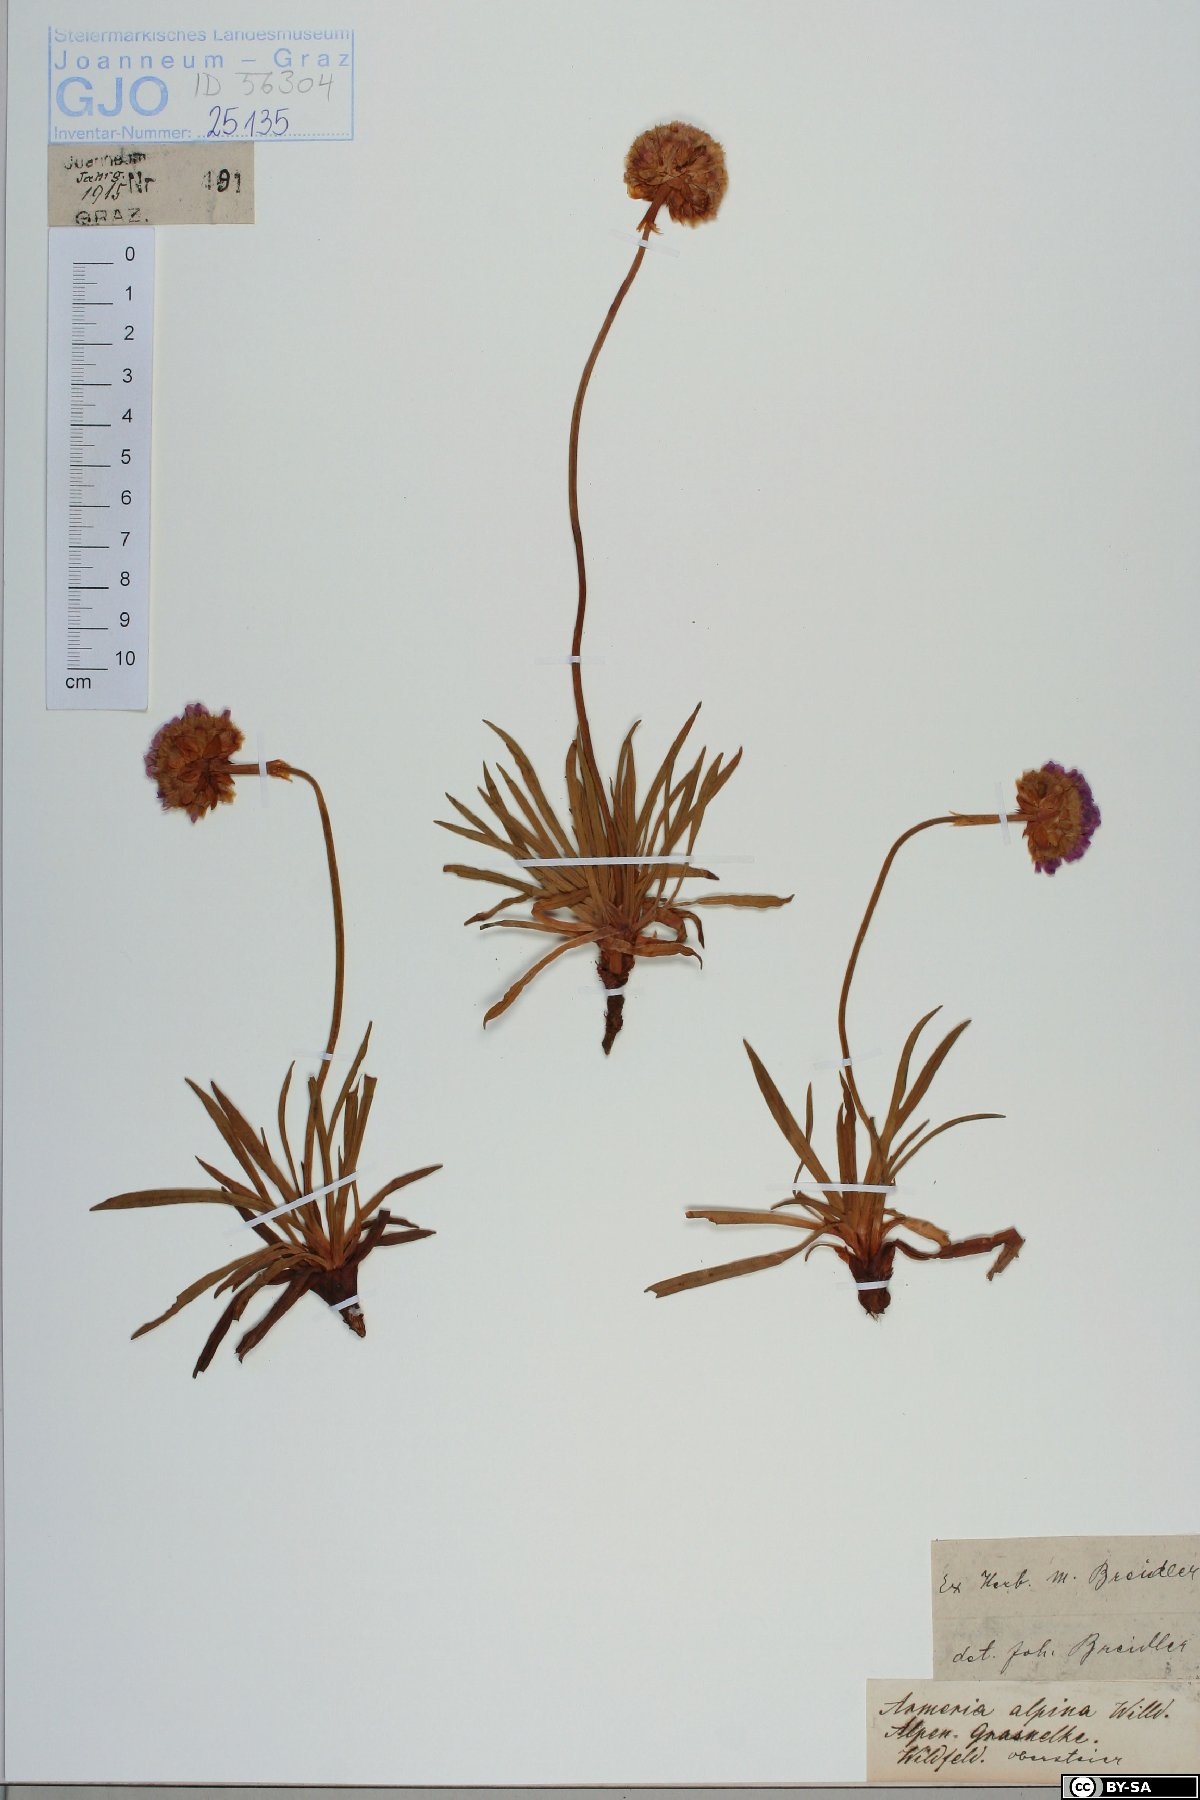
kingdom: Plantae
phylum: Tracheophyta
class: Magnoliopsida
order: Caryophyllales
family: Plumbaginaceae
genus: Armeria
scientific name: Armeria alpina
